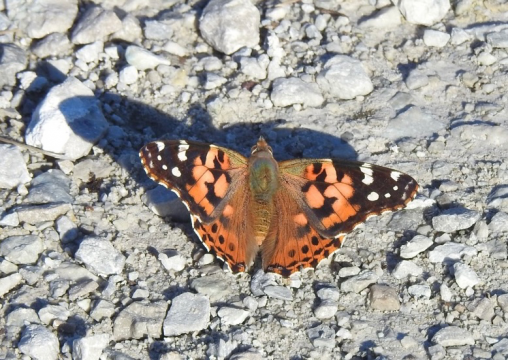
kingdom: Animalia
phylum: Arthropoda
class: Insecta
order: Lepidoptera
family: Nymphalidae
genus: Vanessa
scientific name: Vanessa cardui
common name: Painted Lady
